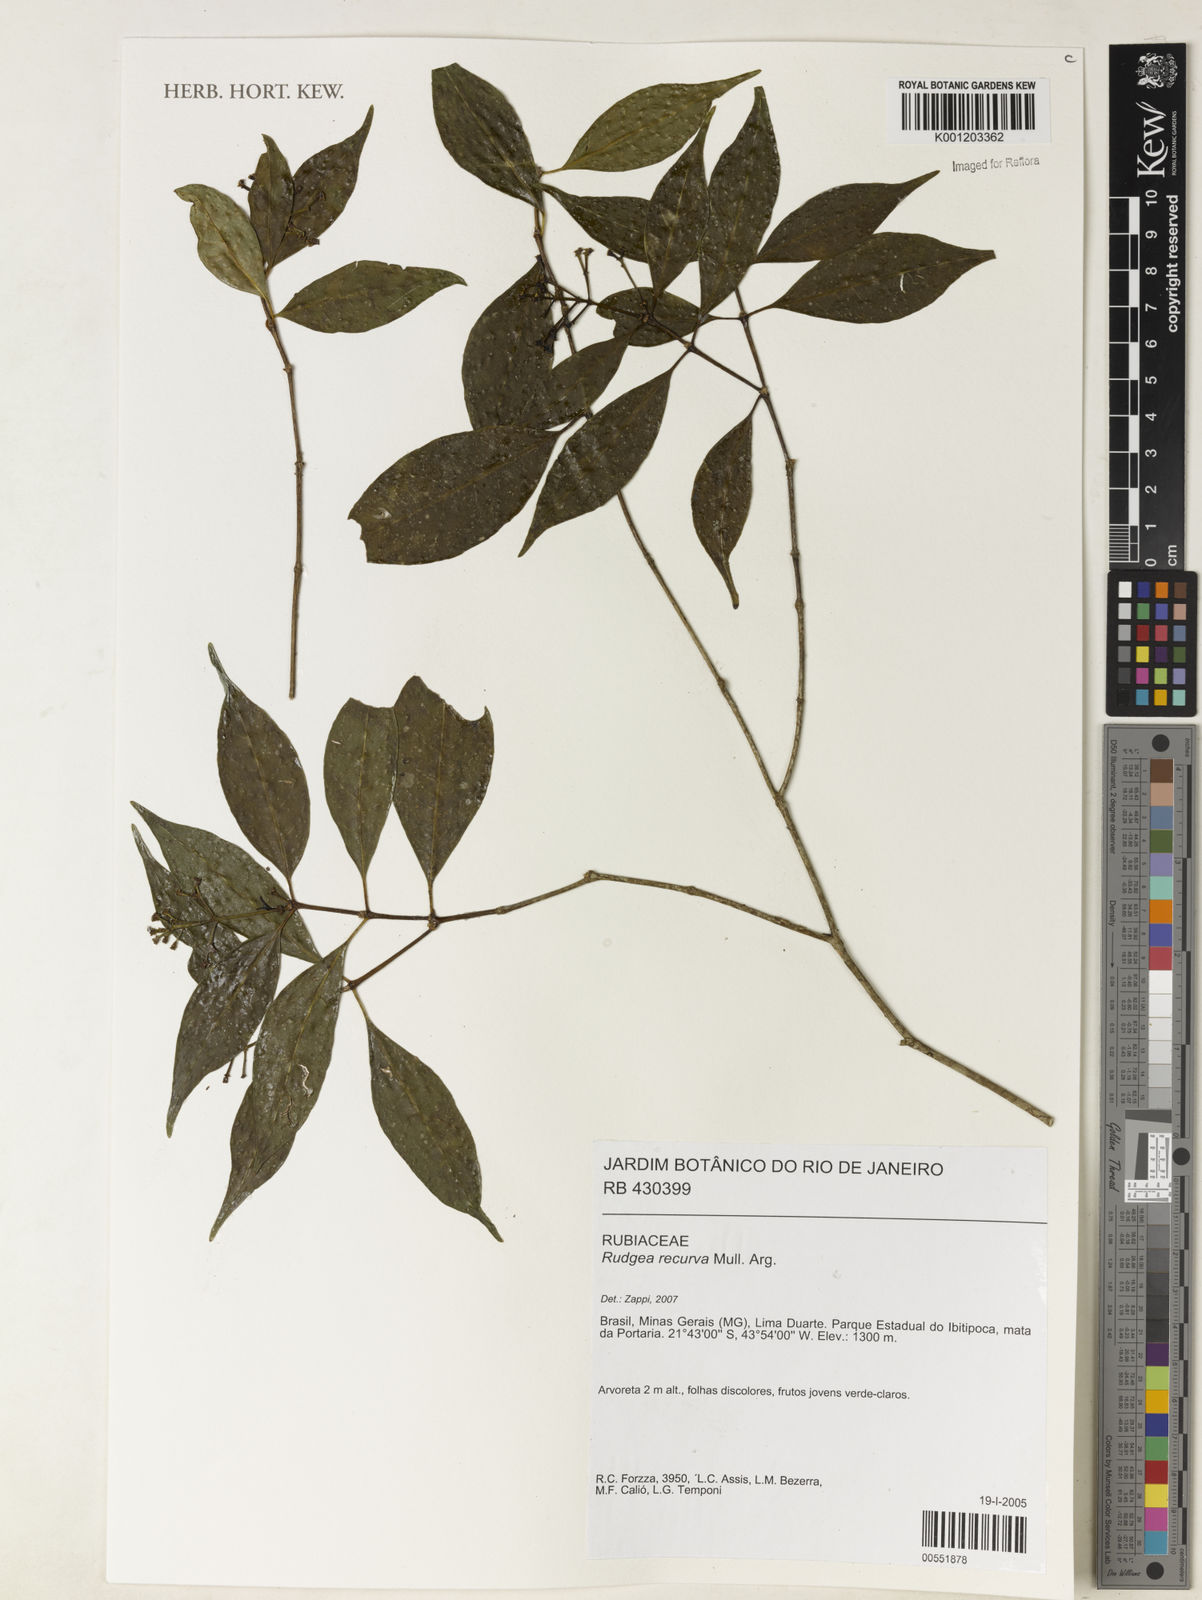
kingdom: Plantae
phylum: Tracheophyta
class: Magnoliopsida
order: Gentianales
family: Rubiaceae
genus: Rudgea
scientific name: Rudgea
